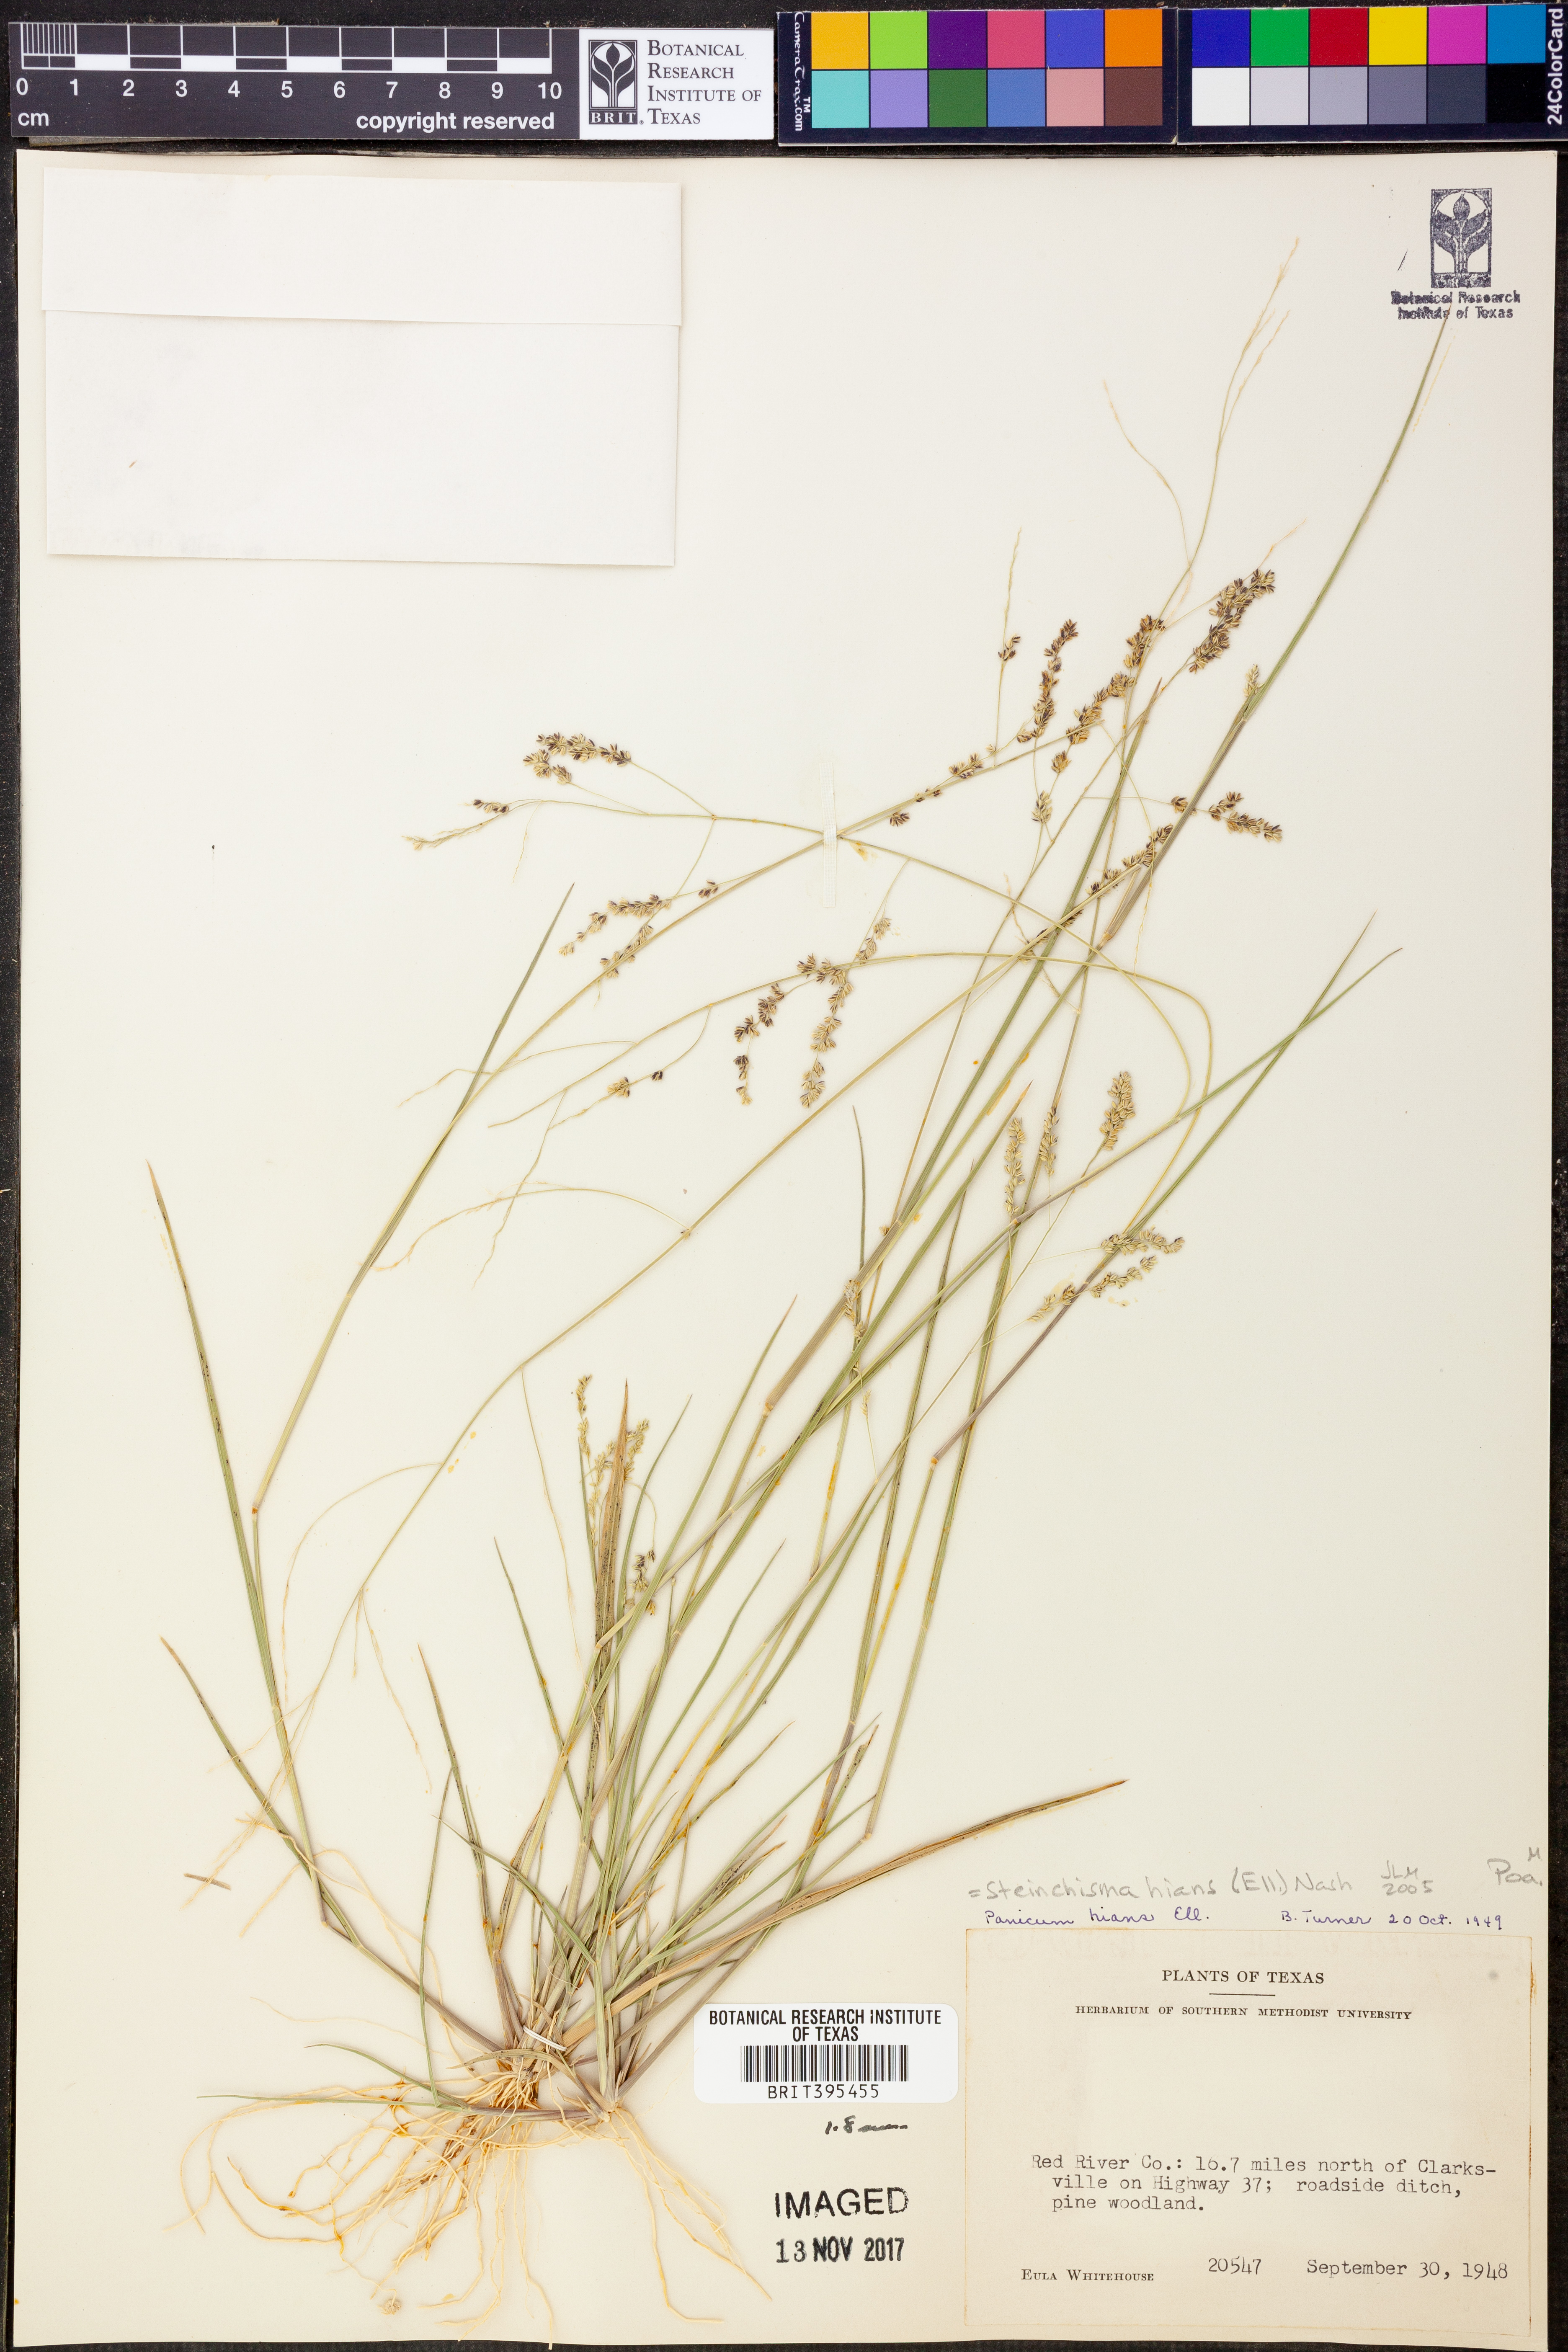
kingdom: Plantae
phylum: Tracheophyta
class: Liliopsida
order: Poales
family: Poaceae
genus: Steinchisma
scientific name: Steinchisma hians
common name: Gaping panic grass
